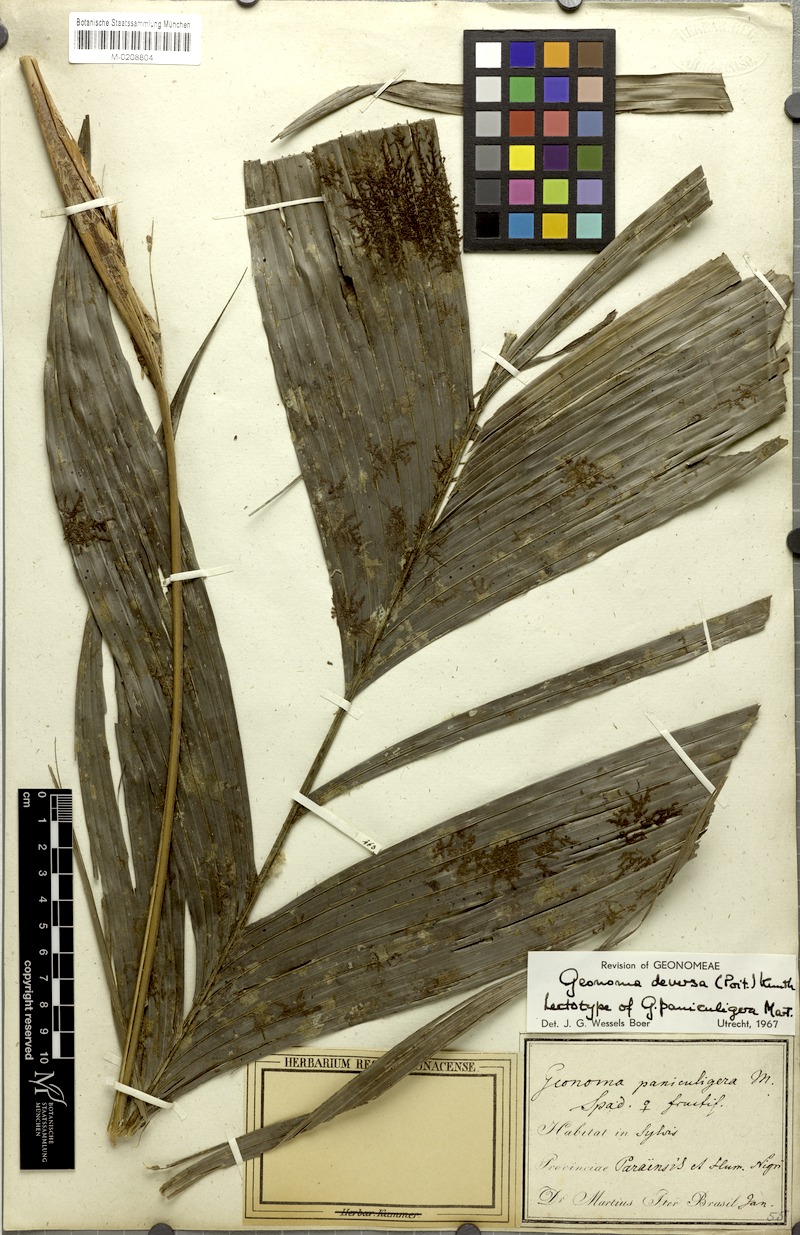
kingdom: Plantae
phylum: Tracheophyta
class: Liliopsida
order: Arecales
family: Arecaceae
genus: Geonoma
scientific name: Geonoma deversa
